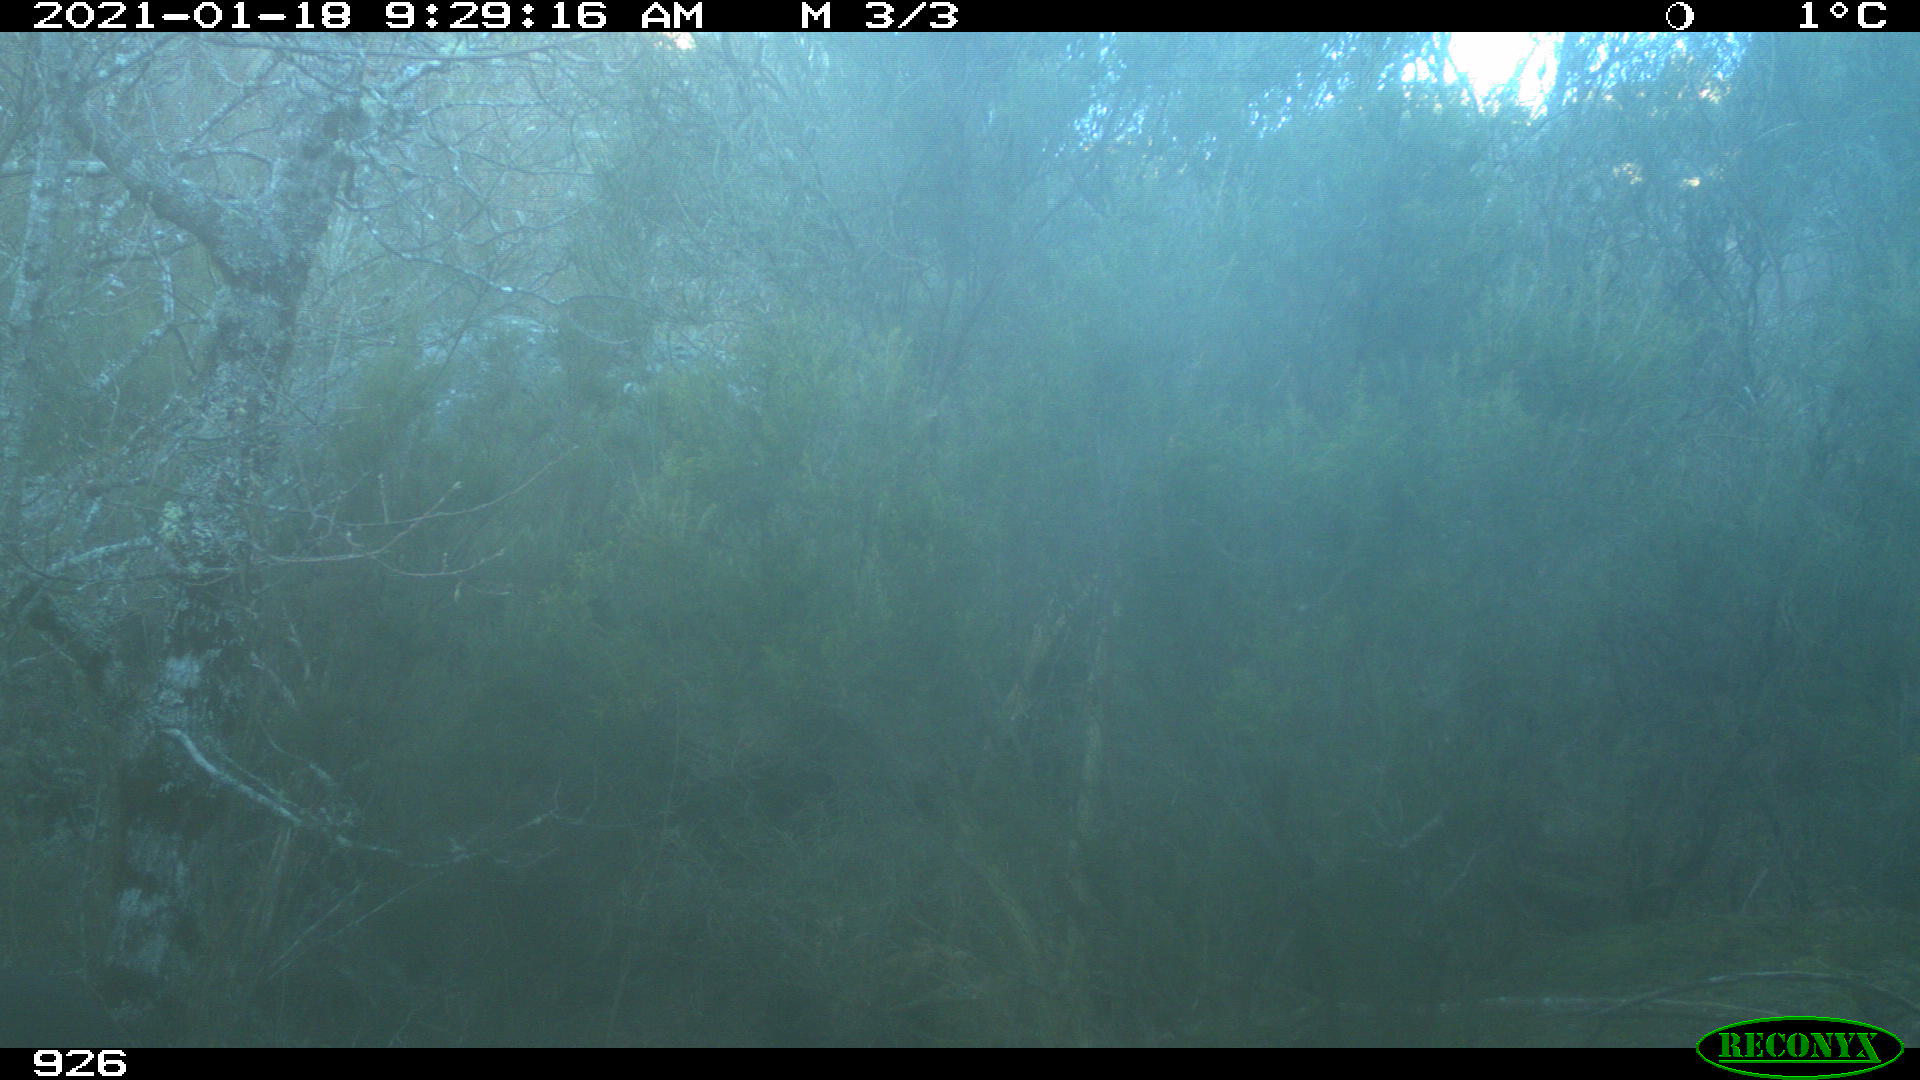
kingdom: Animalia
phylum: Chordata
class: Mammalia
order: Artiodactyla
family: Cervidae
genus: Capreolus
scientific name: Capreolus capreolus
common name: Western roe deer
